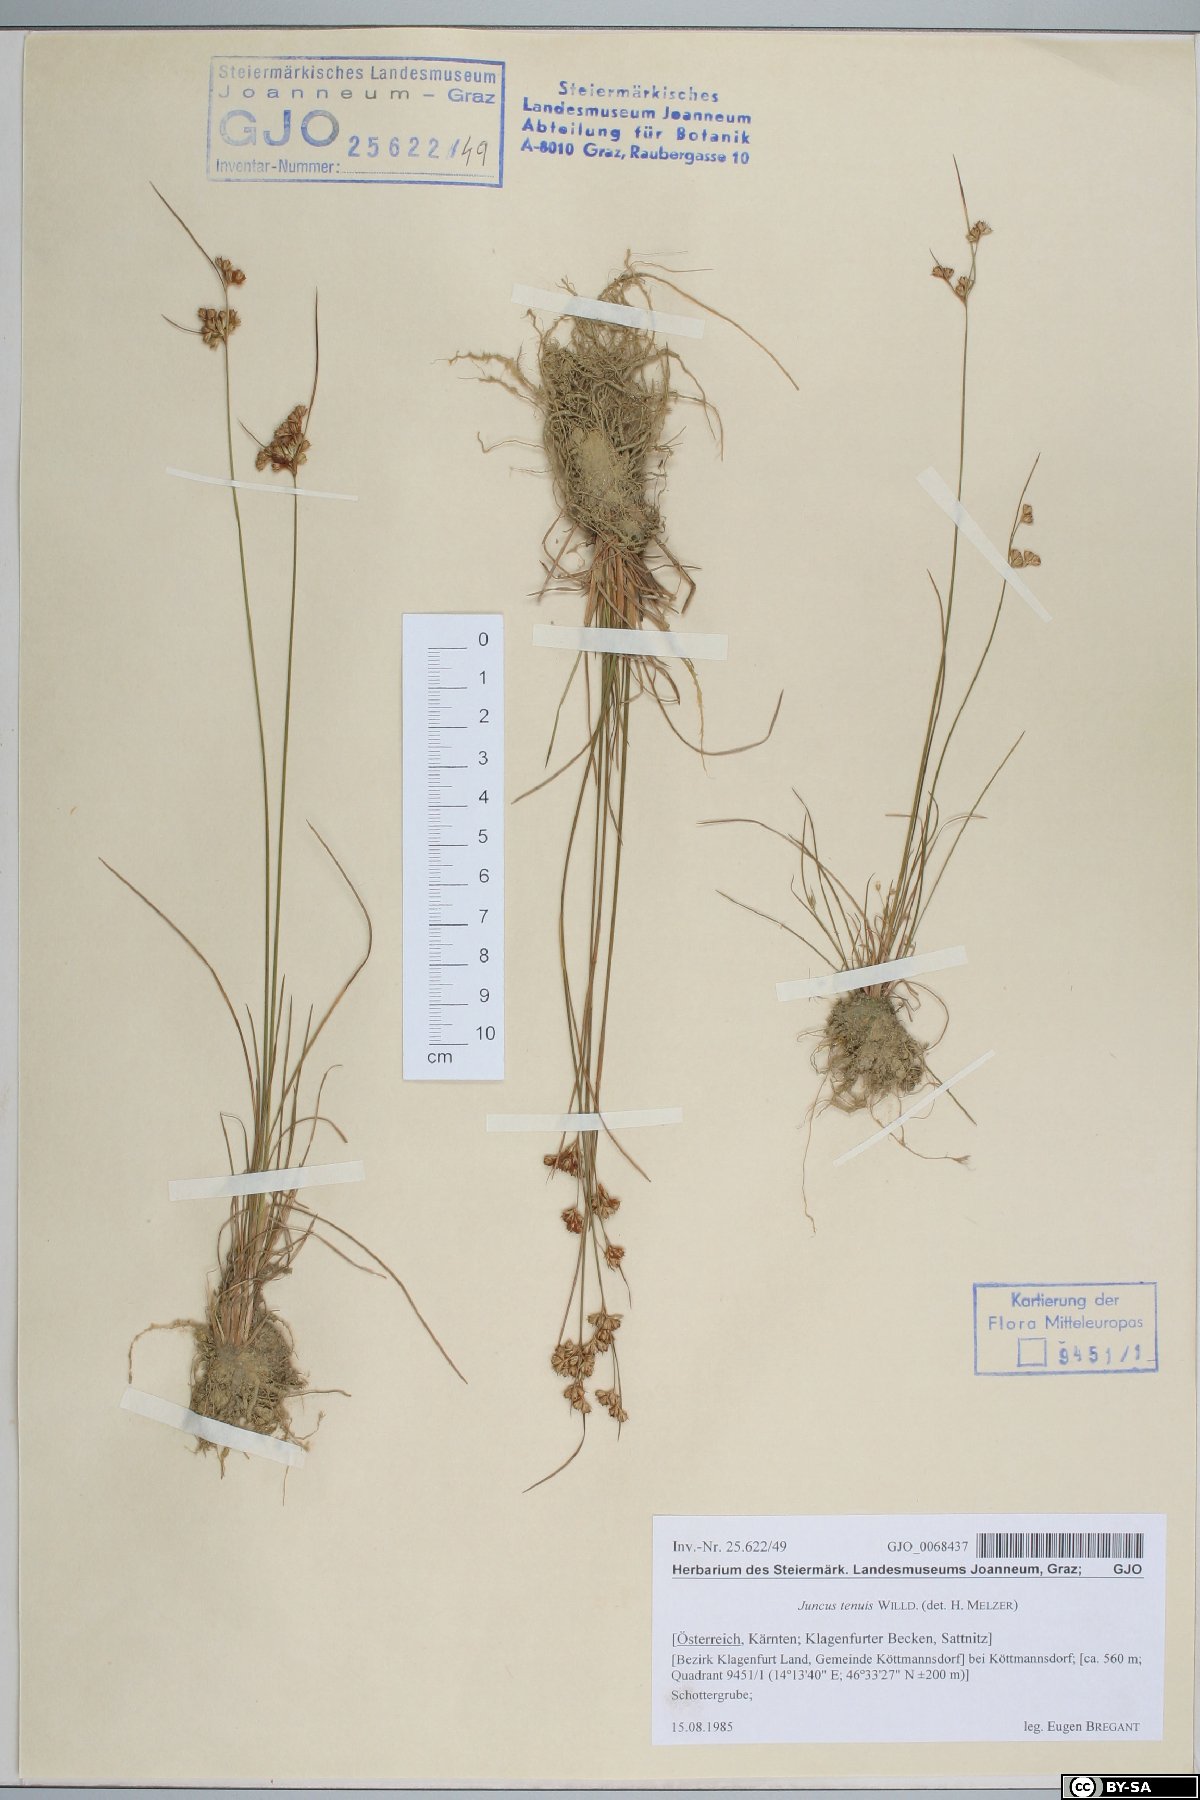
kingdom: Plantae
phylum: Tracheophyta
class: Liliopsida
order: Poales
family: Juncaceae
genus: Juncus
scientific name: Juncus tenuis
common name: Slender rush
